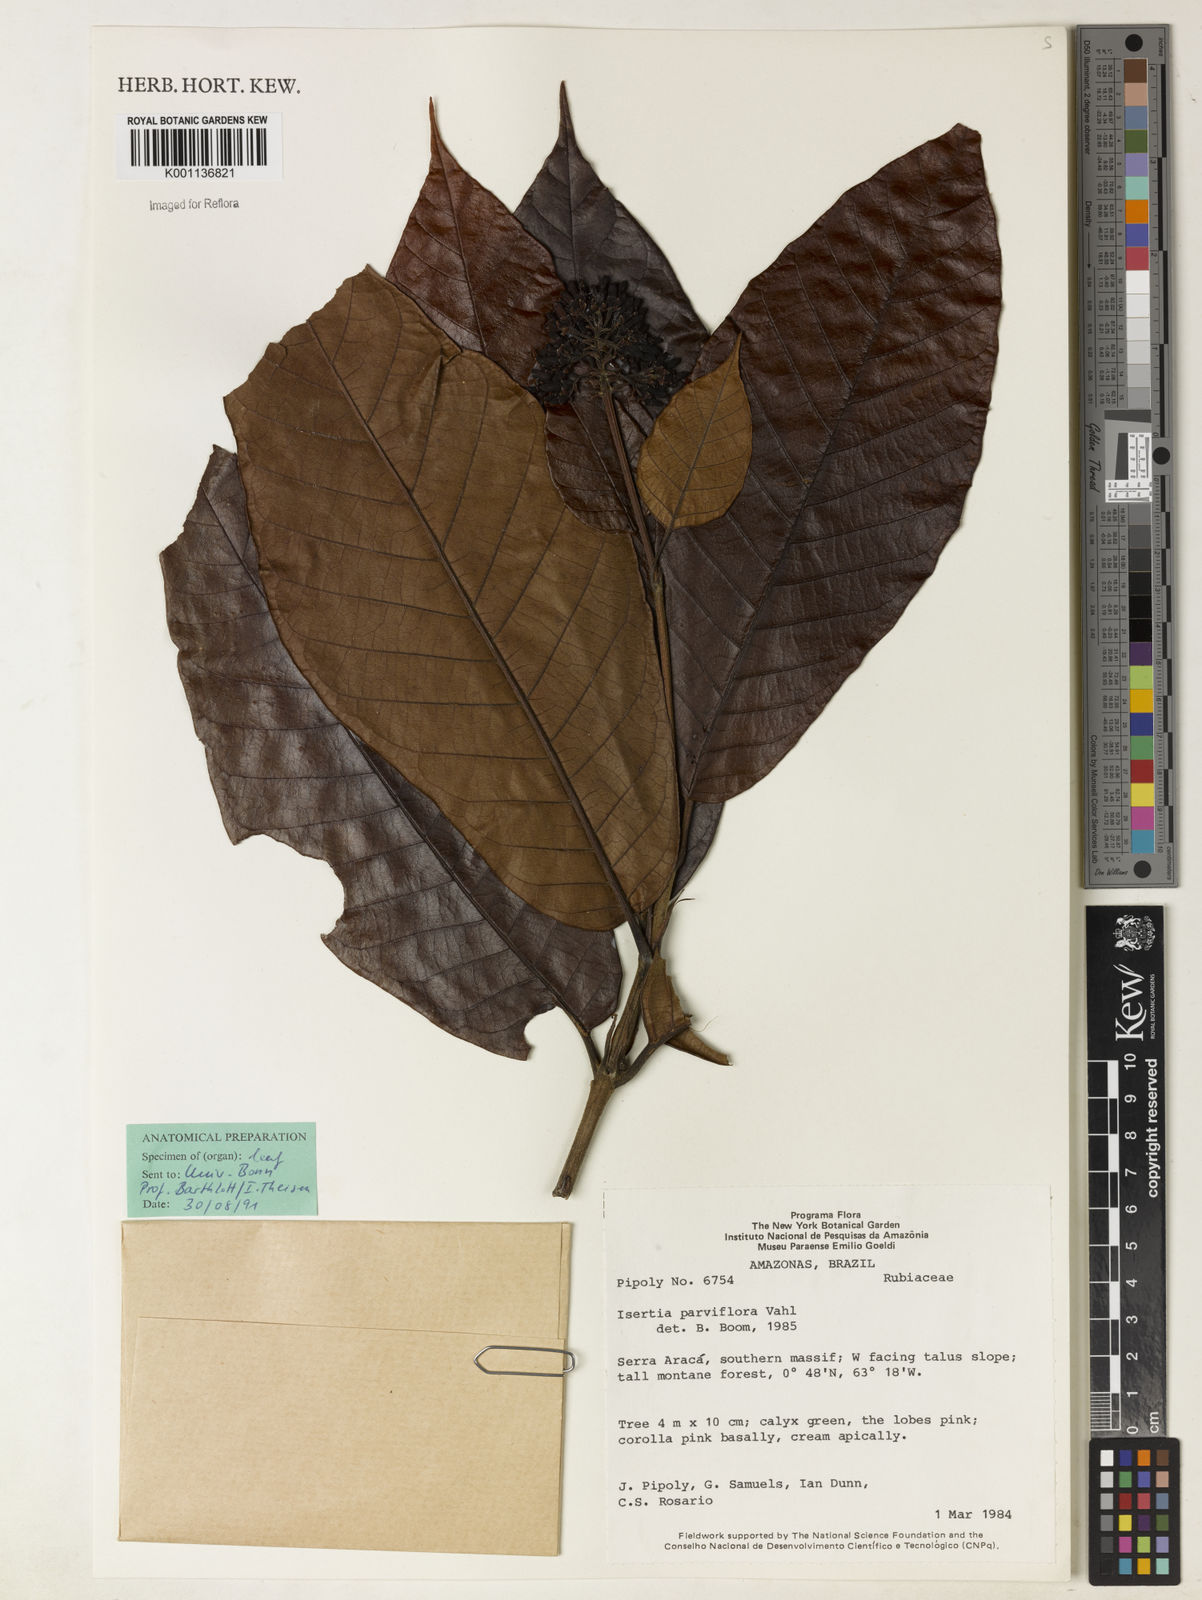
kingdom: Plantae
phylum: Tracheophyta
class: Magnoliopsida
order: Gentianales
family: Rubiaceae
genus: Isertia
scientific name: Isertia parviflora
